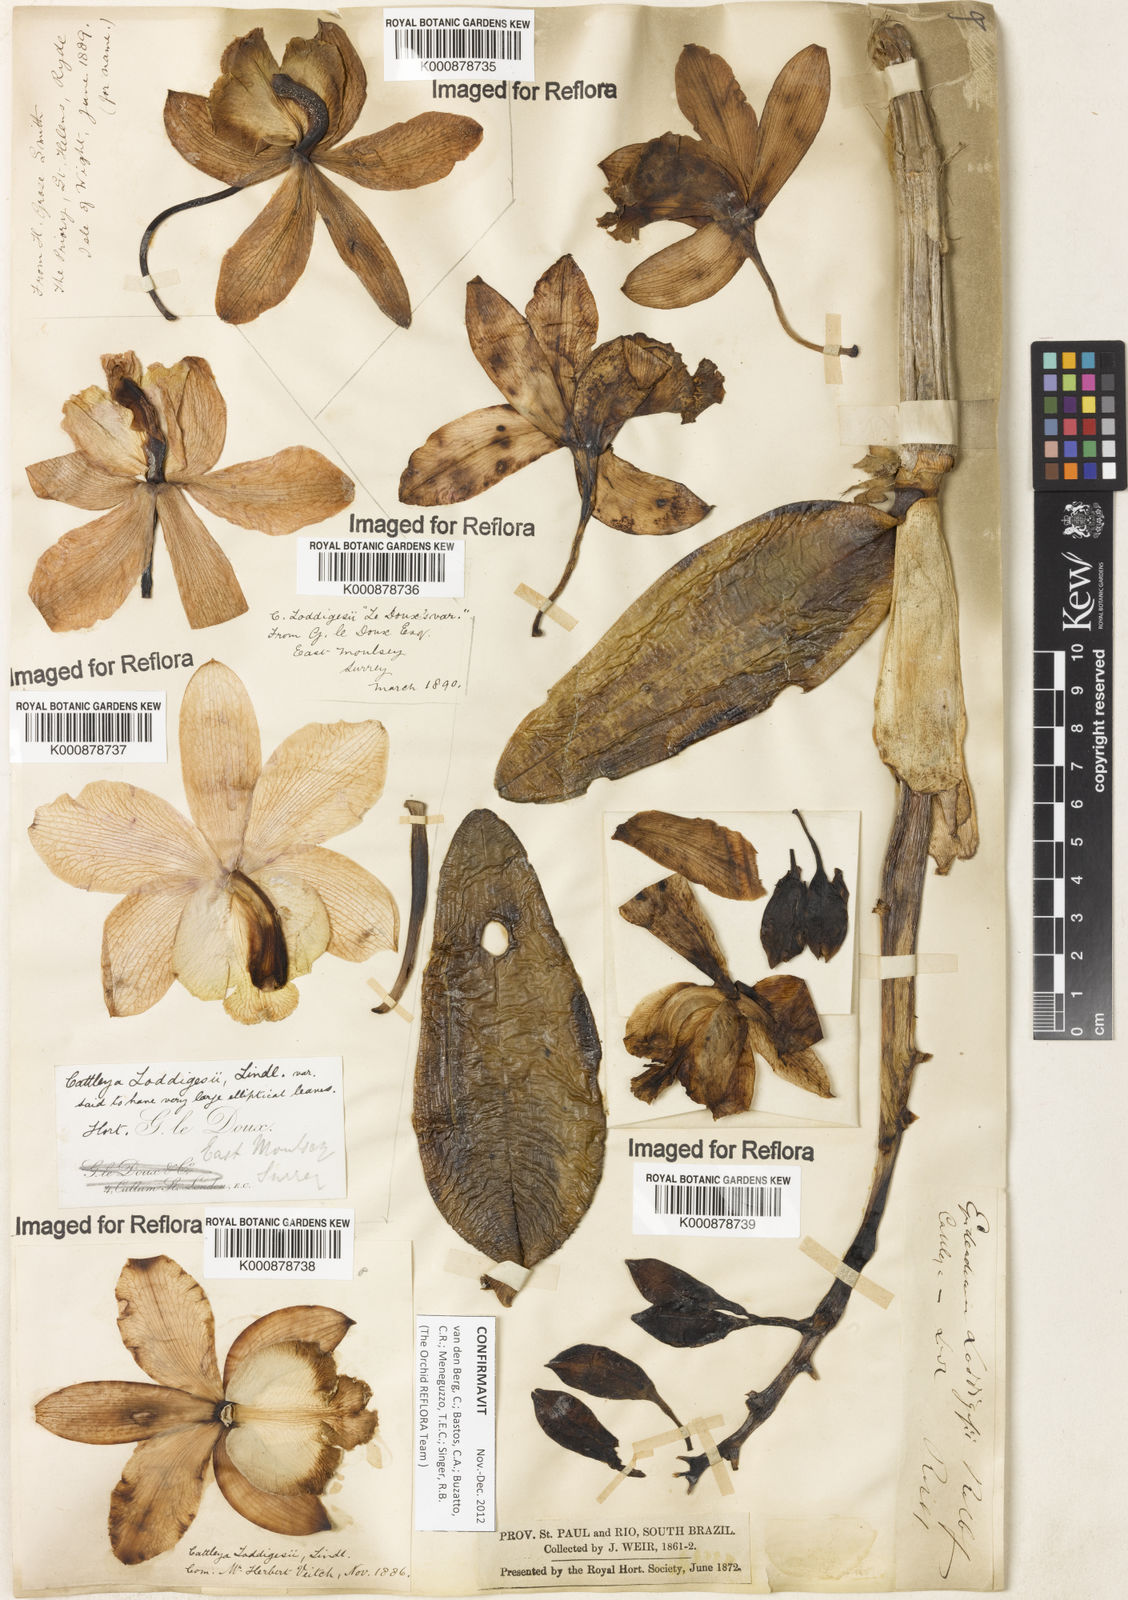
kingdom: Plantae
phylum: Tracheophyta
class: Liliopsida
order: Asparagales
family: Orchidaceae
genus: Cattleya
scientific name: Cattleya loddigesii
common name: Loddiges's cattleya
